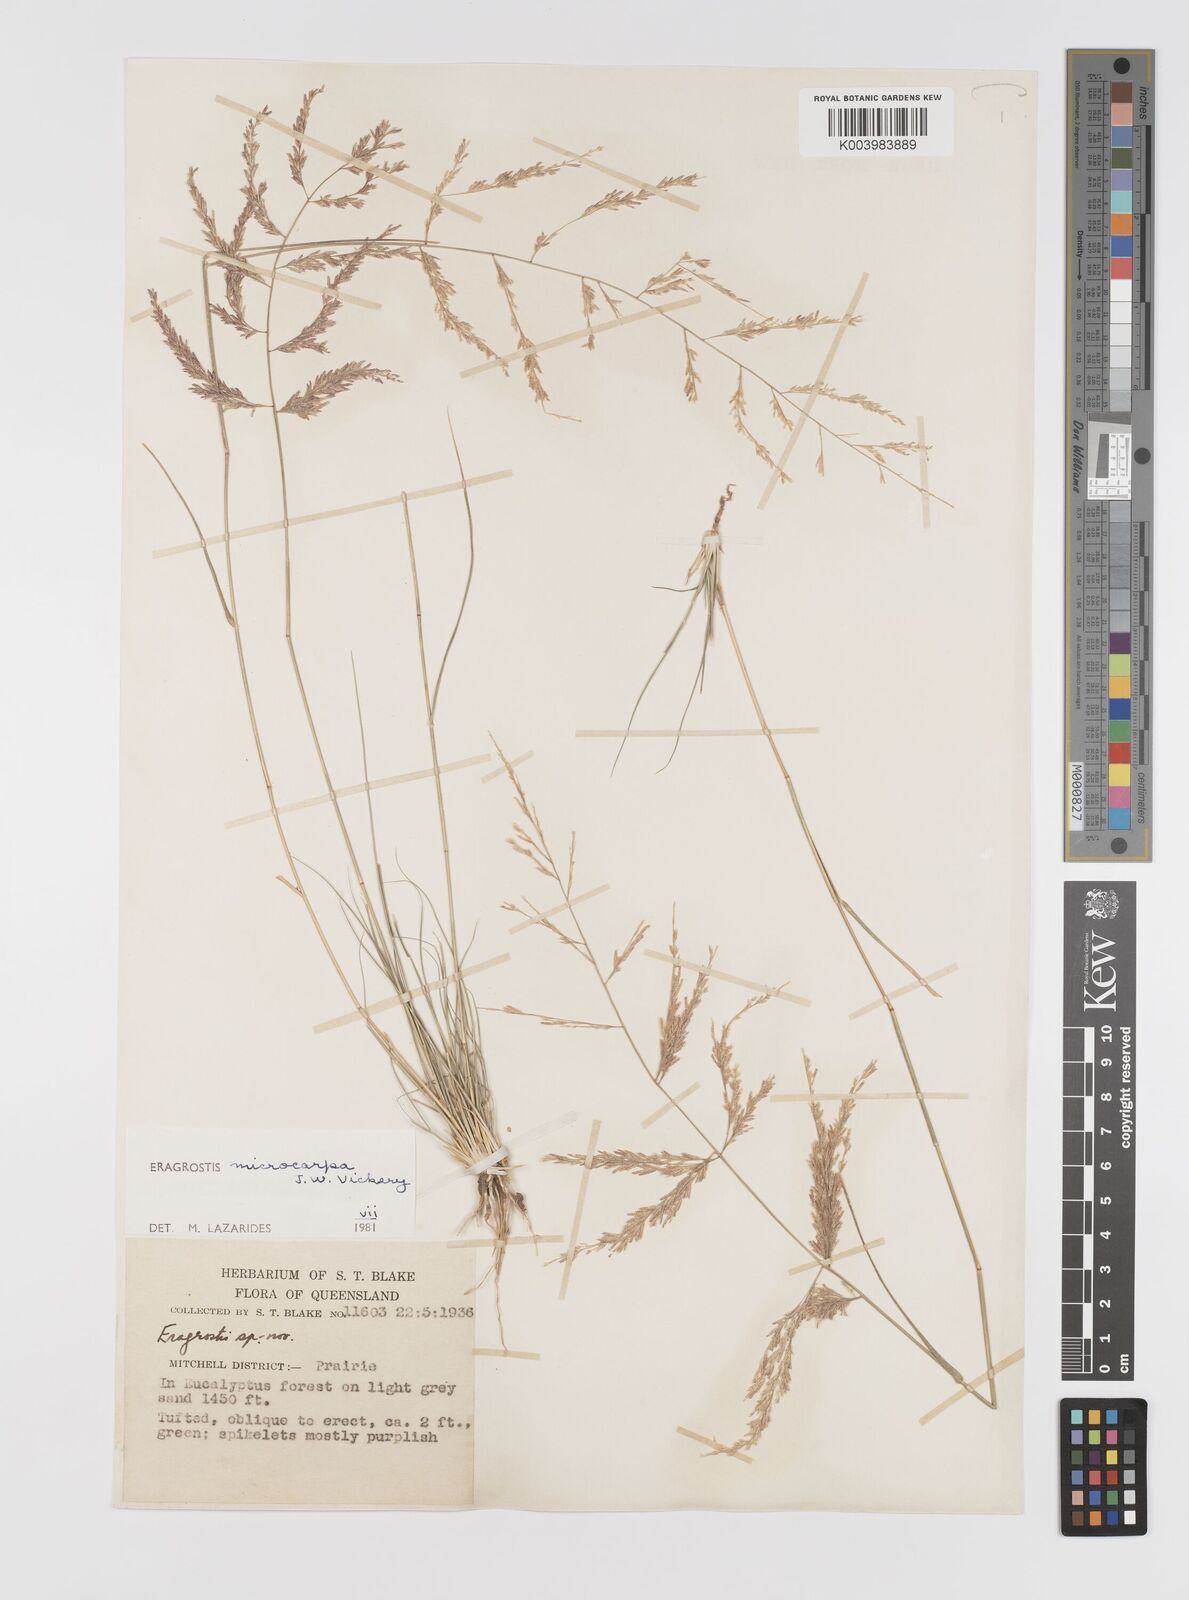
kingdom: Plantae
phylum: Tracheophyta
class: Liliopsida
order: Poales
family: Poaceae
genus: Eragrostis
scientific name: Eragrostis microcarpa
